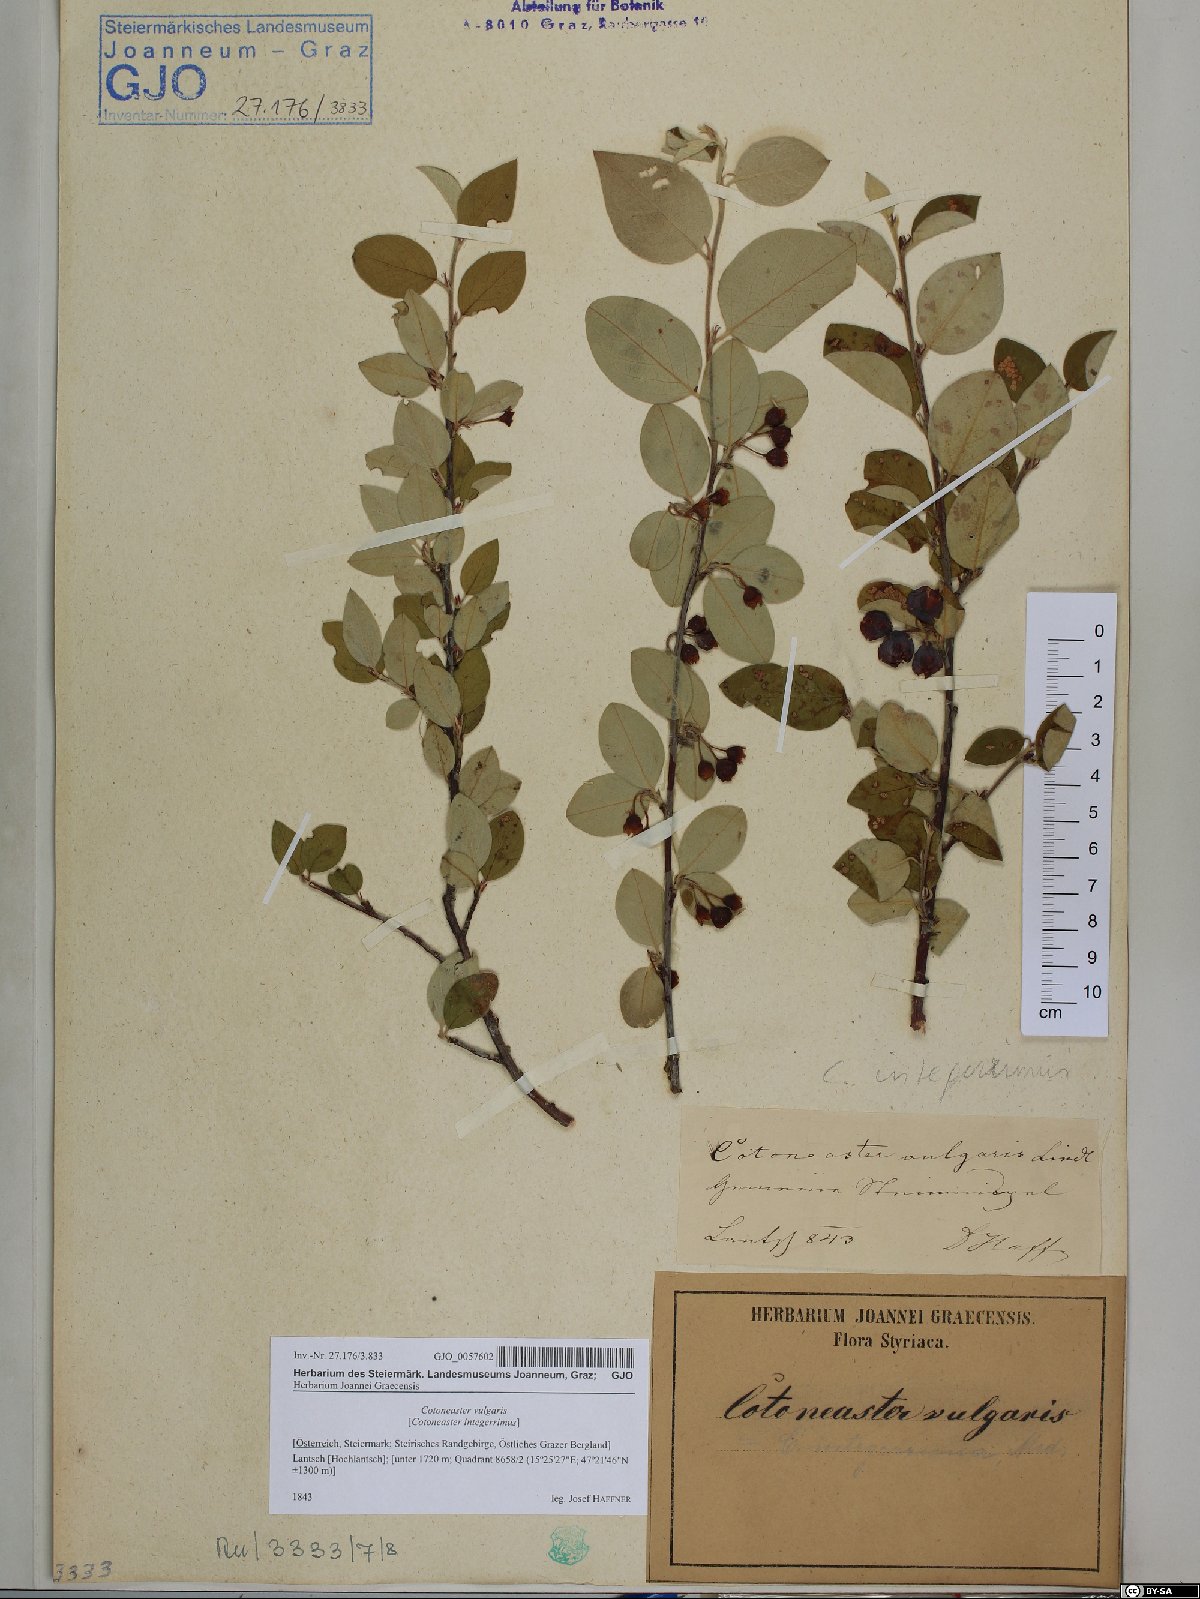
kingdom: Plantae
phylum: Tracheophyta
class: Magnoliopsida
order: Rosales
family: Rosaceae
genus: Cotoneaster
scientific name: Cotoneaster integerrimus
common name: Wild cotoneaster
